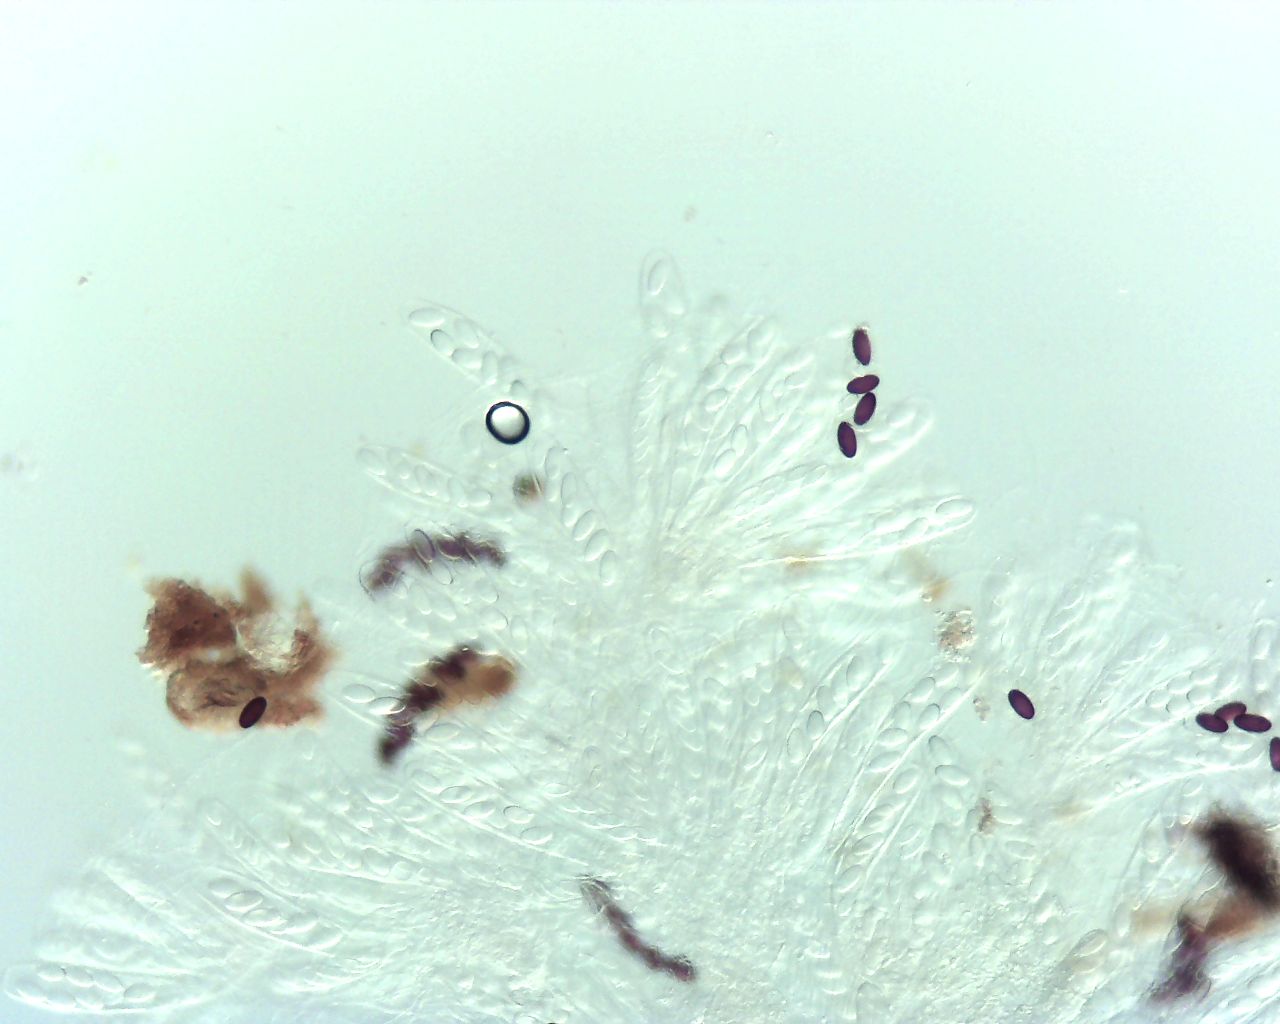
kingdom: Fungi
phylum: Ascomycota
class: Pezizomycetes
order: Pezizales
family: Ascobolaceae
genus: Ascobolus
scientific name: Ascobolus albidus
